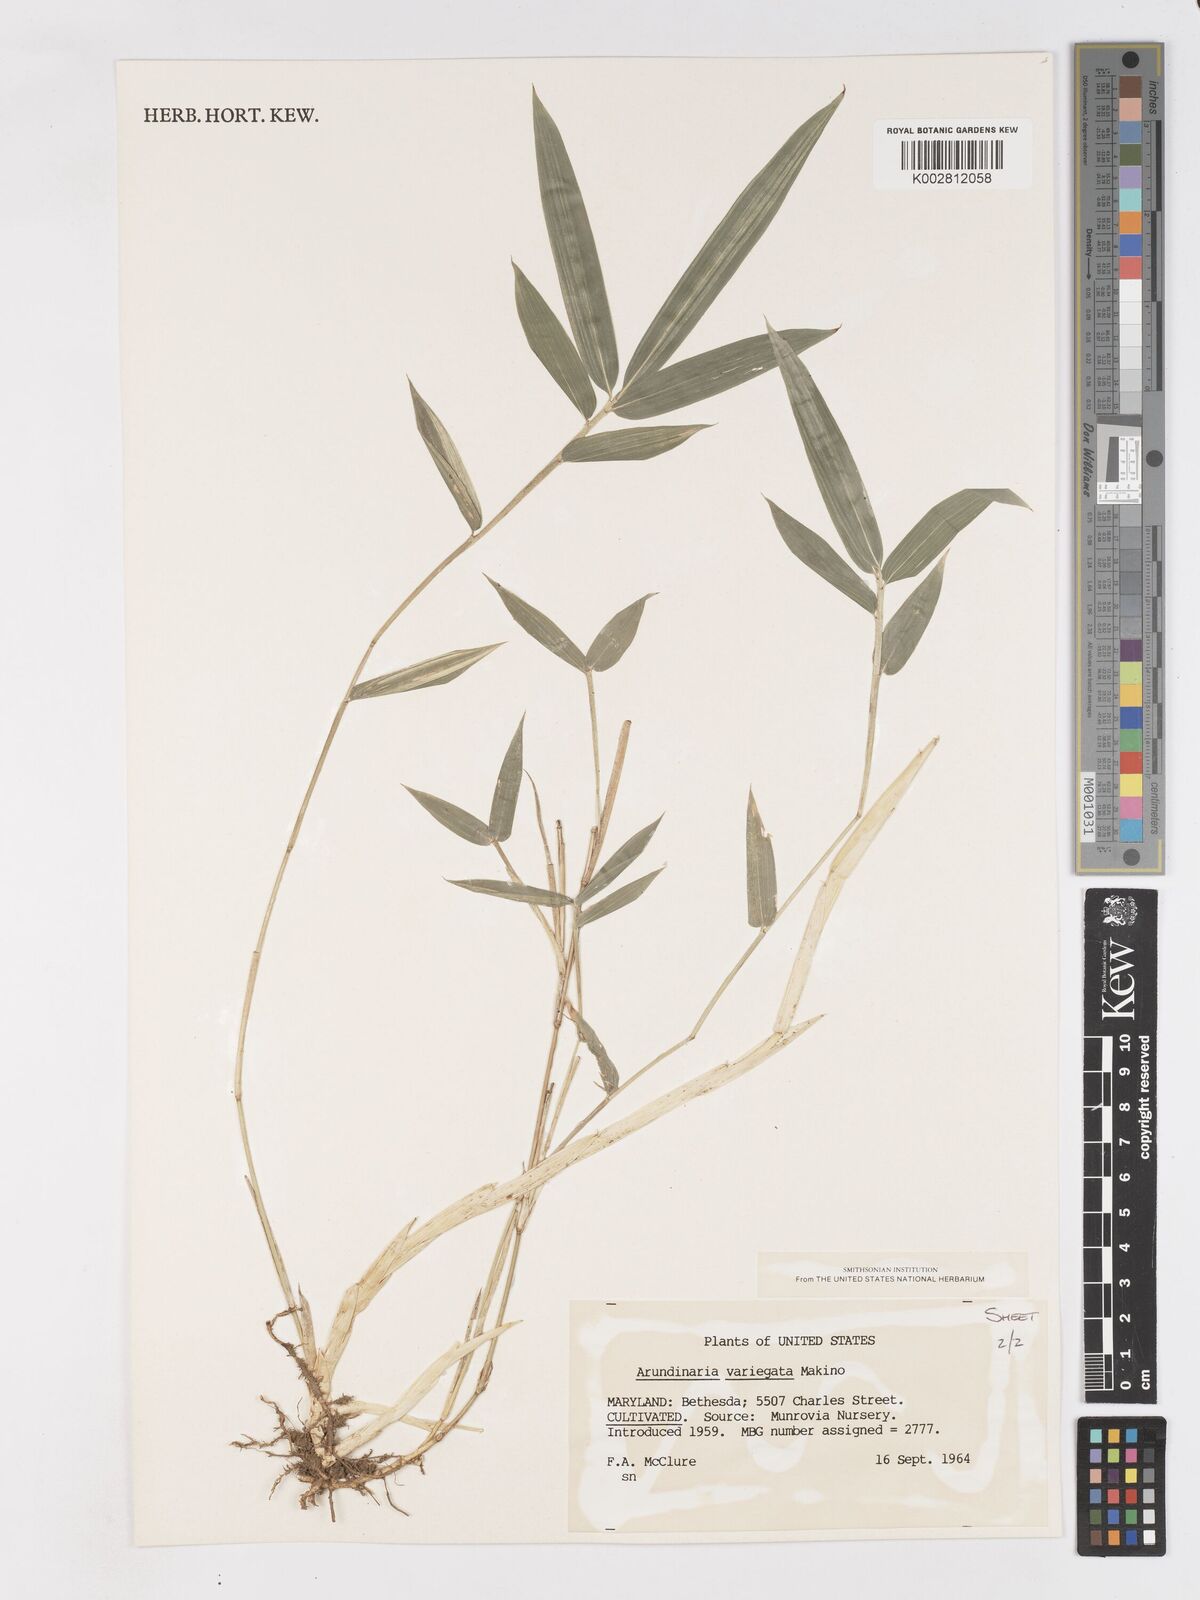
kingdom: Plantae
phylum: Tracheophyta
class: Liliopsida
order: Poales
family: Poaceae
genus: Pleioblastus
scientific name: Pleioblastus argenteostriatus
